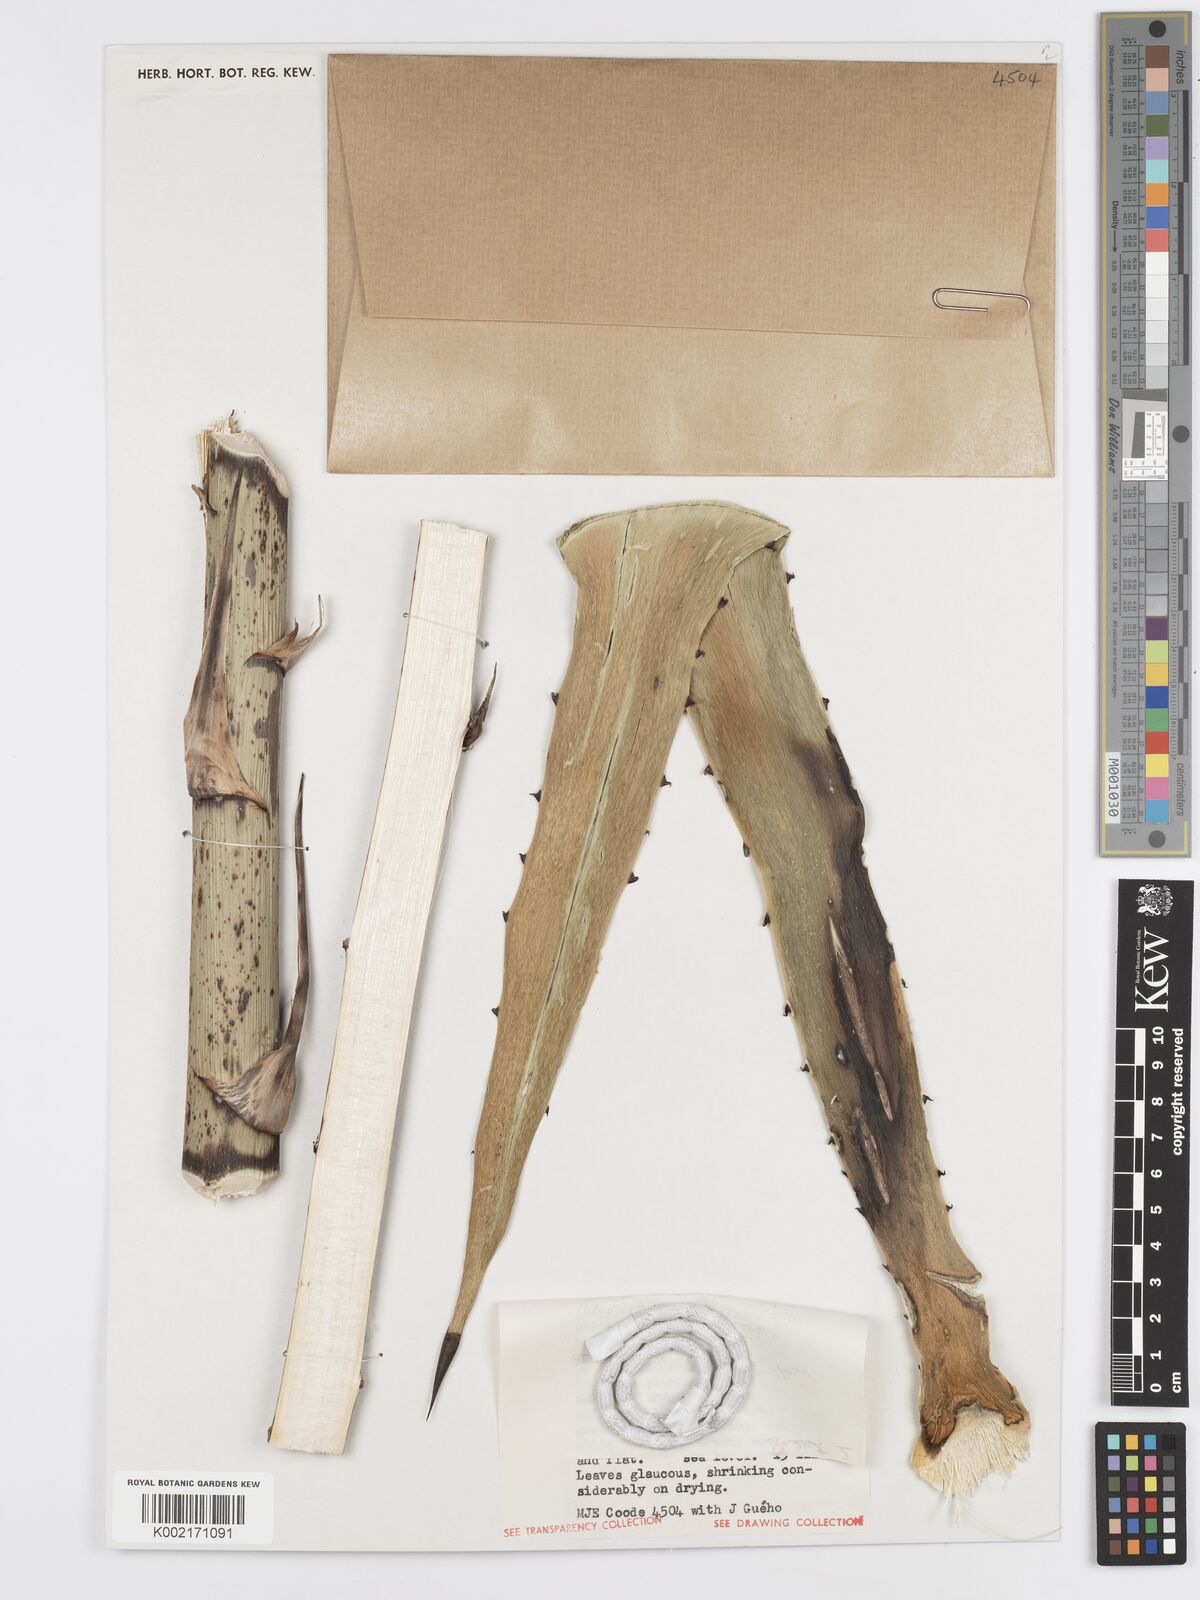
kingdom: Plantae
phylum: Tracheophyta
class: Liliopsida
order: Asparagales
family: Asparagaceae
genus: Agave
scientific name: Agave angustifolia
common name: Mescal agave
